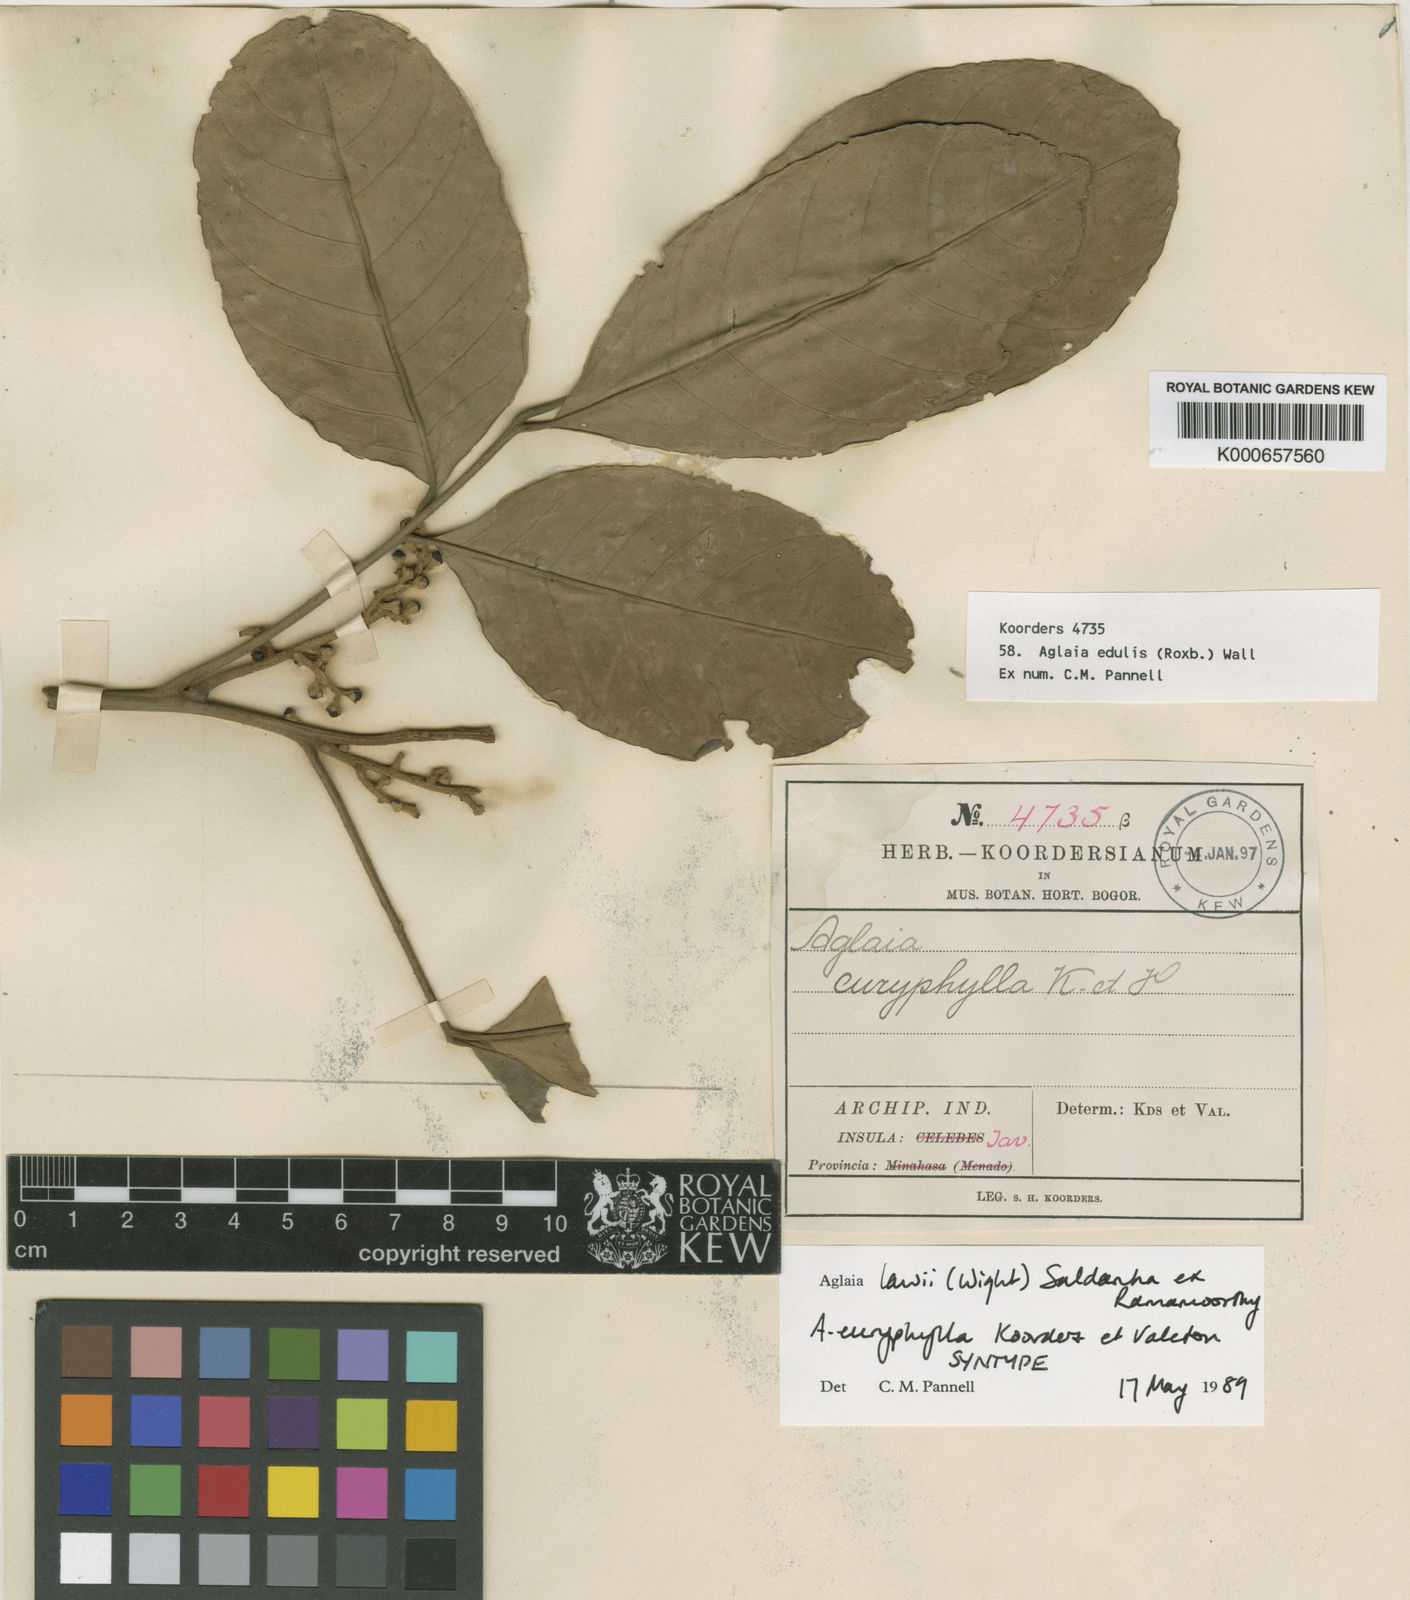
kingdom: Plantae
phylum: Tracheophyta
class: Magnoliopsida
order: Sapindales
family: Meliaceae
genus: Aglaia
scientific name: Aglaia lawii
